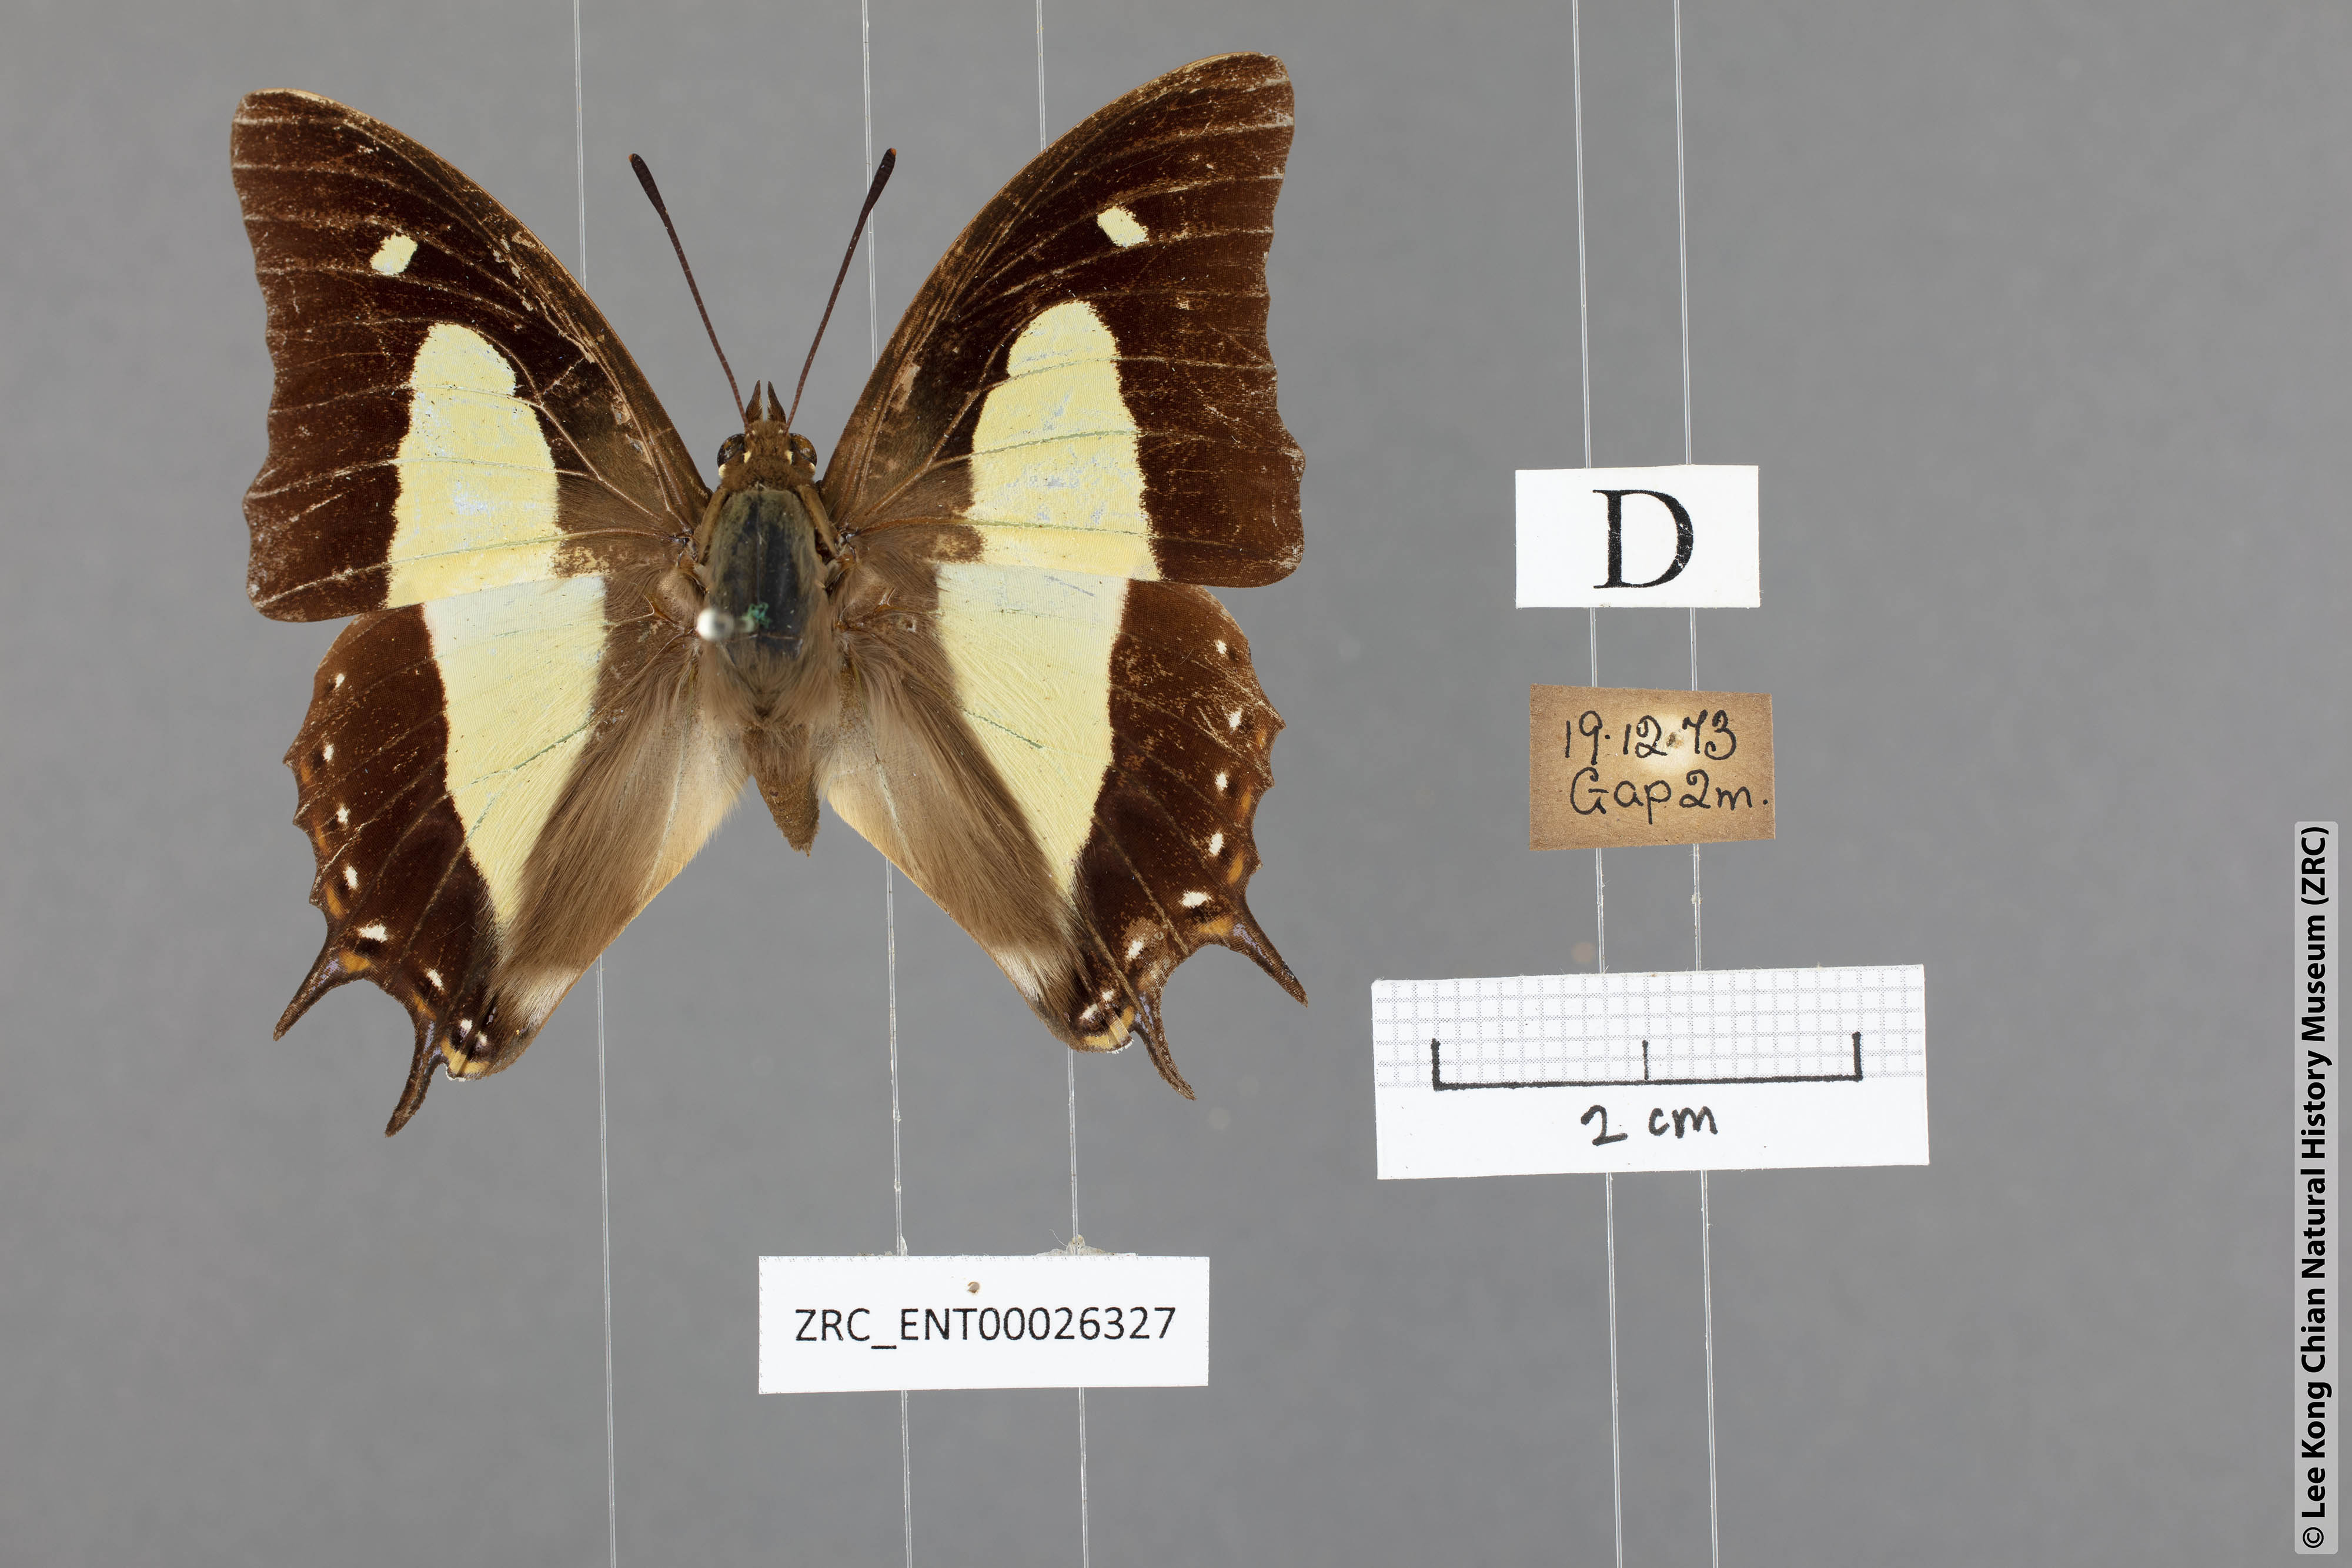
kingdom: Animalia
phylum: Arthropoda
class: Insecta
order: Lepidoptera
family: Nymphalidae
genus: Polyura
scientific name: Polyura athamas
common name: Common nawab
